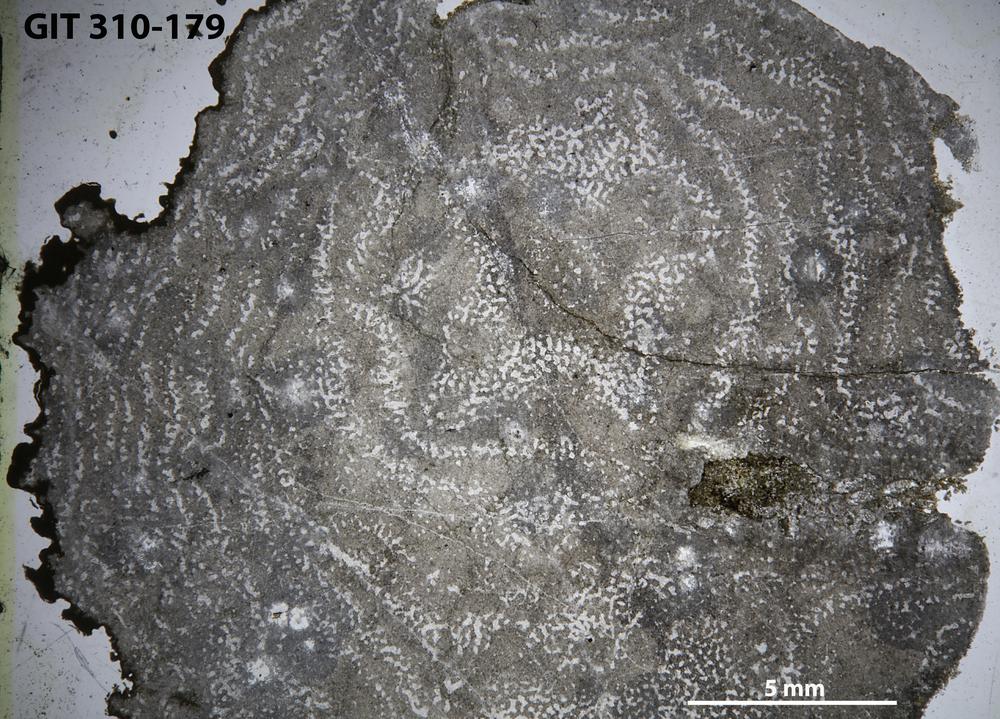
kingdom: Animalia
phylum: Porifera
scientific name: Porifera
